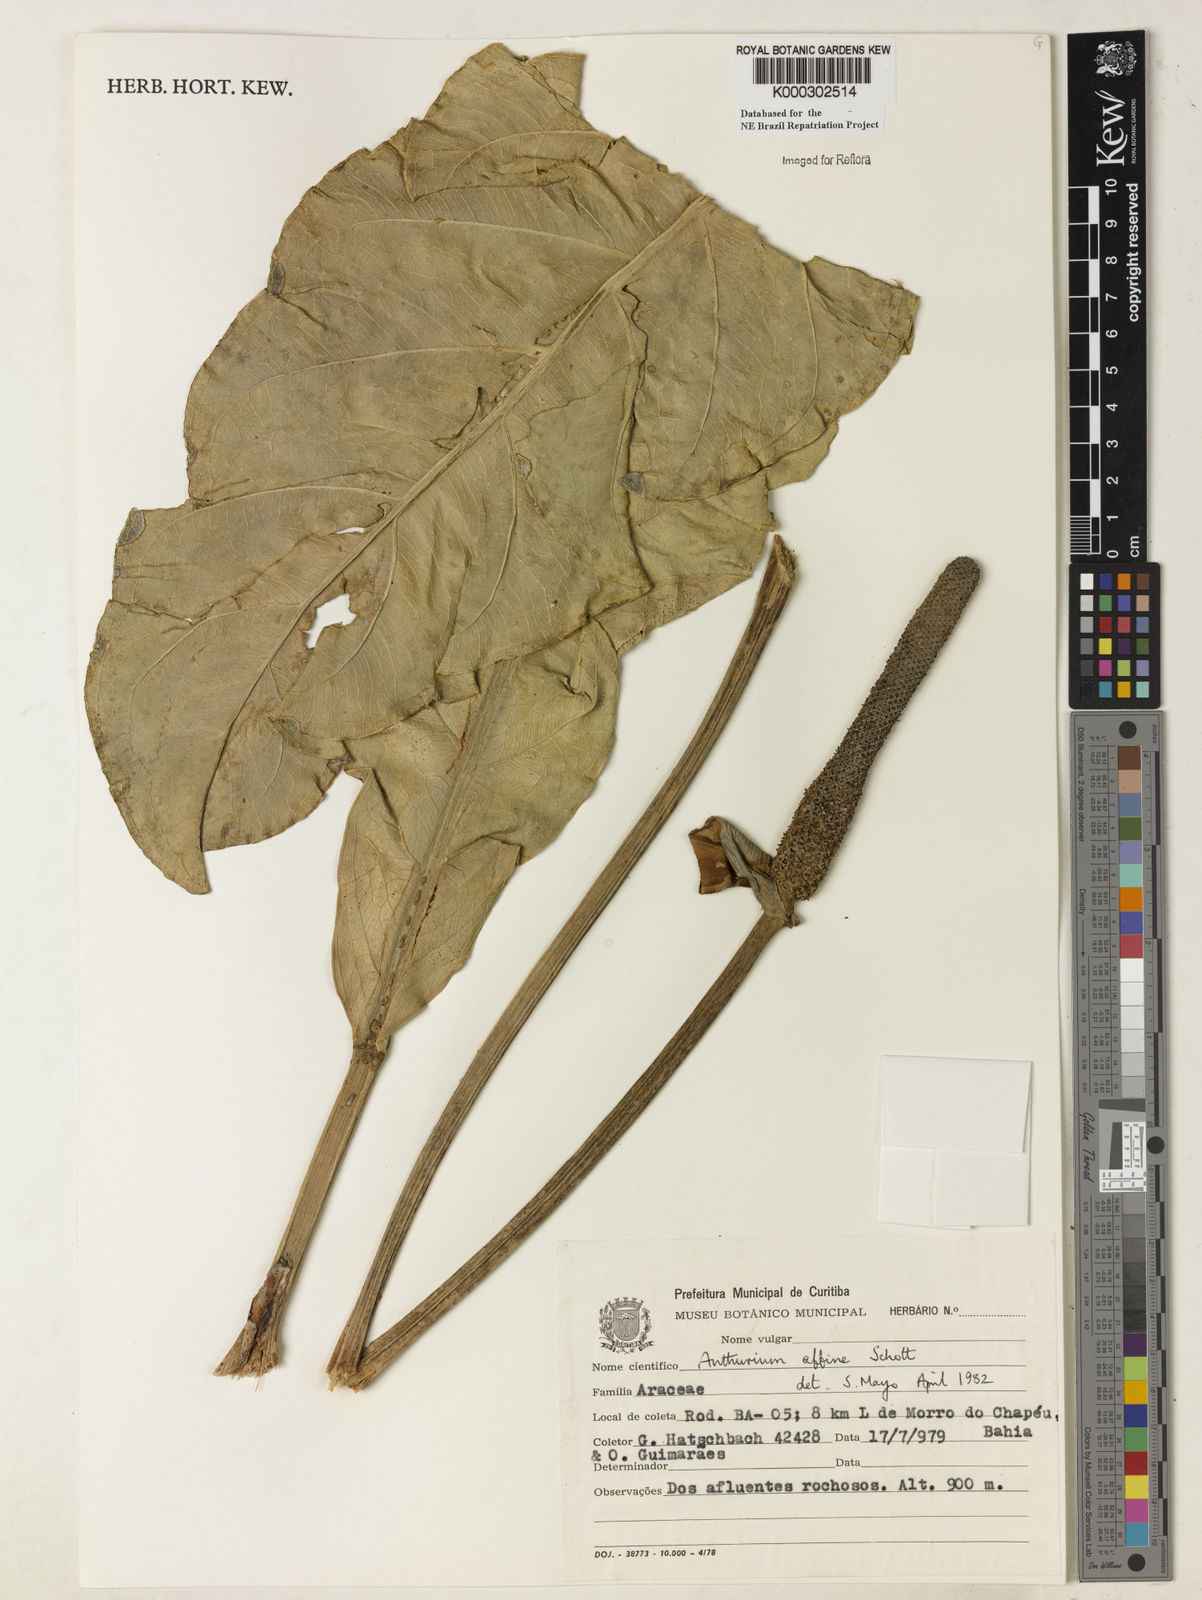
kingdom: Plantae
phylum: Tracheophyta
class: Liliopsida
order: Alismatales
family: Araceae
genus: Anthurium
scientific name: Anthurium affine
